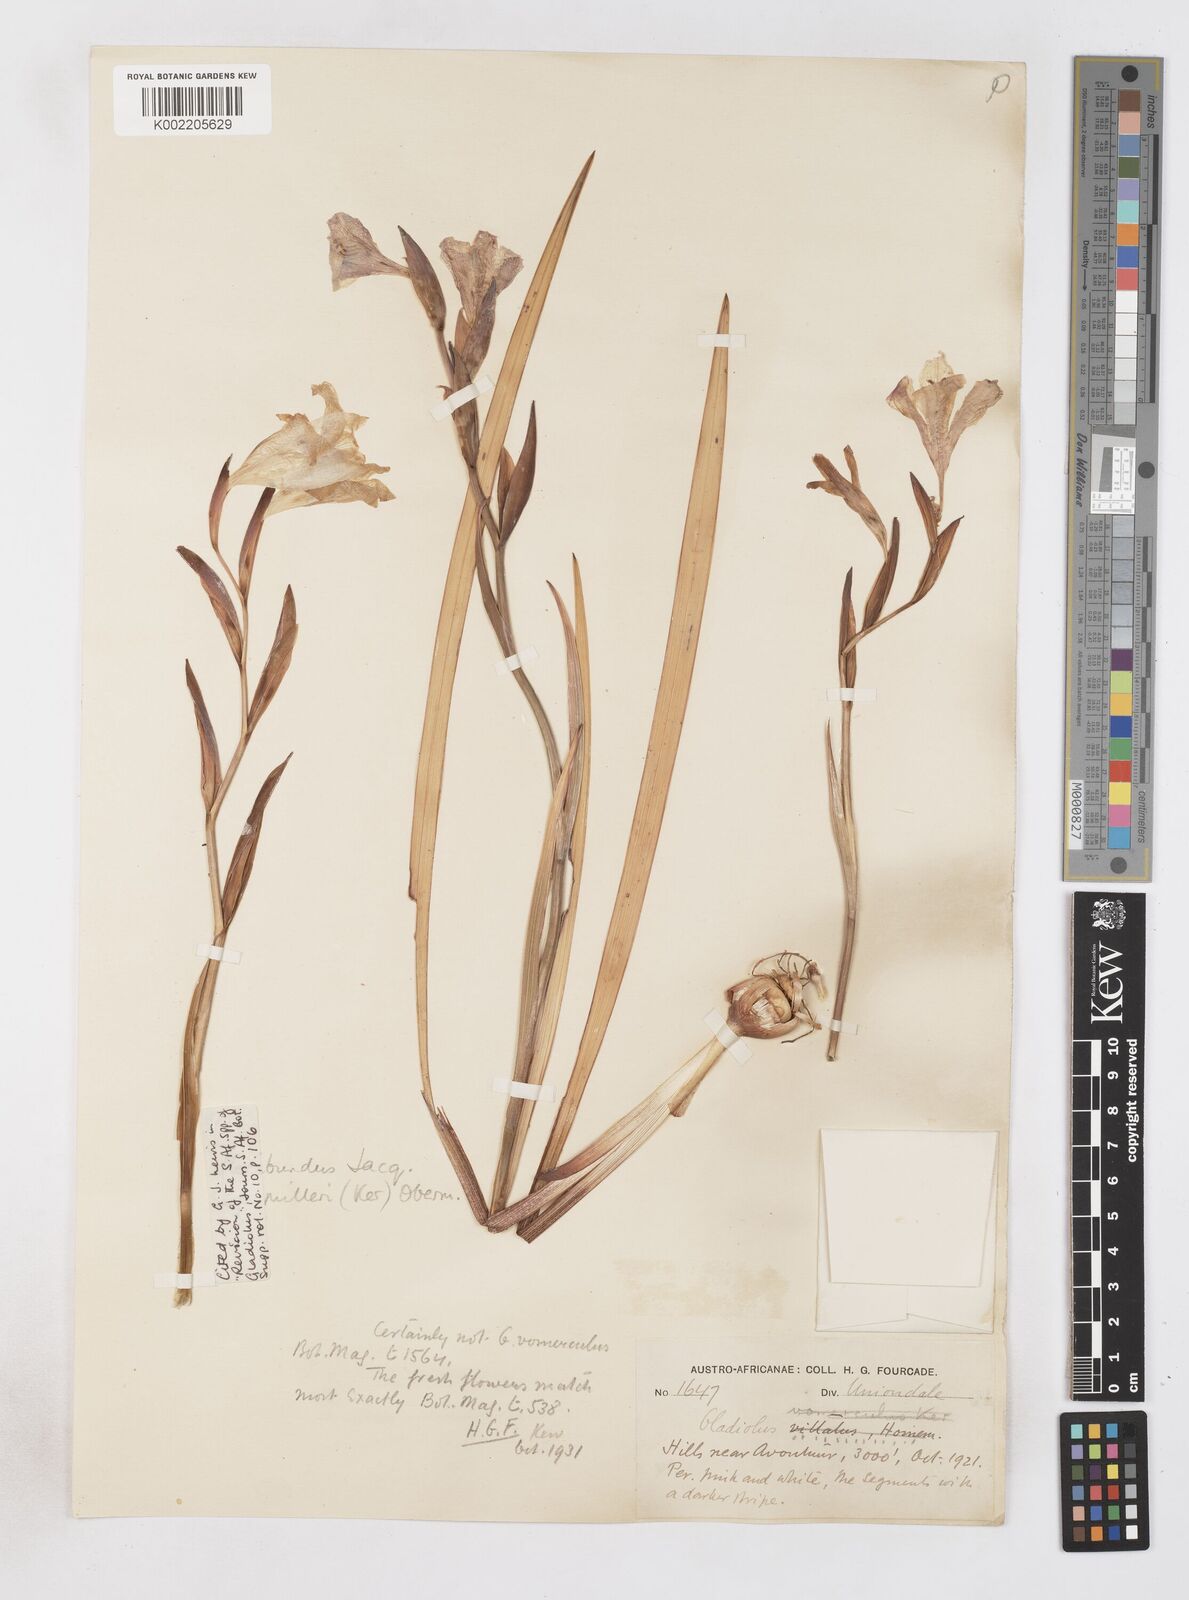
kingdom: Plantae
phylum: Tracheophyta
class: Liliopsida
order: Asparagales
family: Iridaceae
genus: Gladiolus
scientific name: Gladiolus grandiflorus
